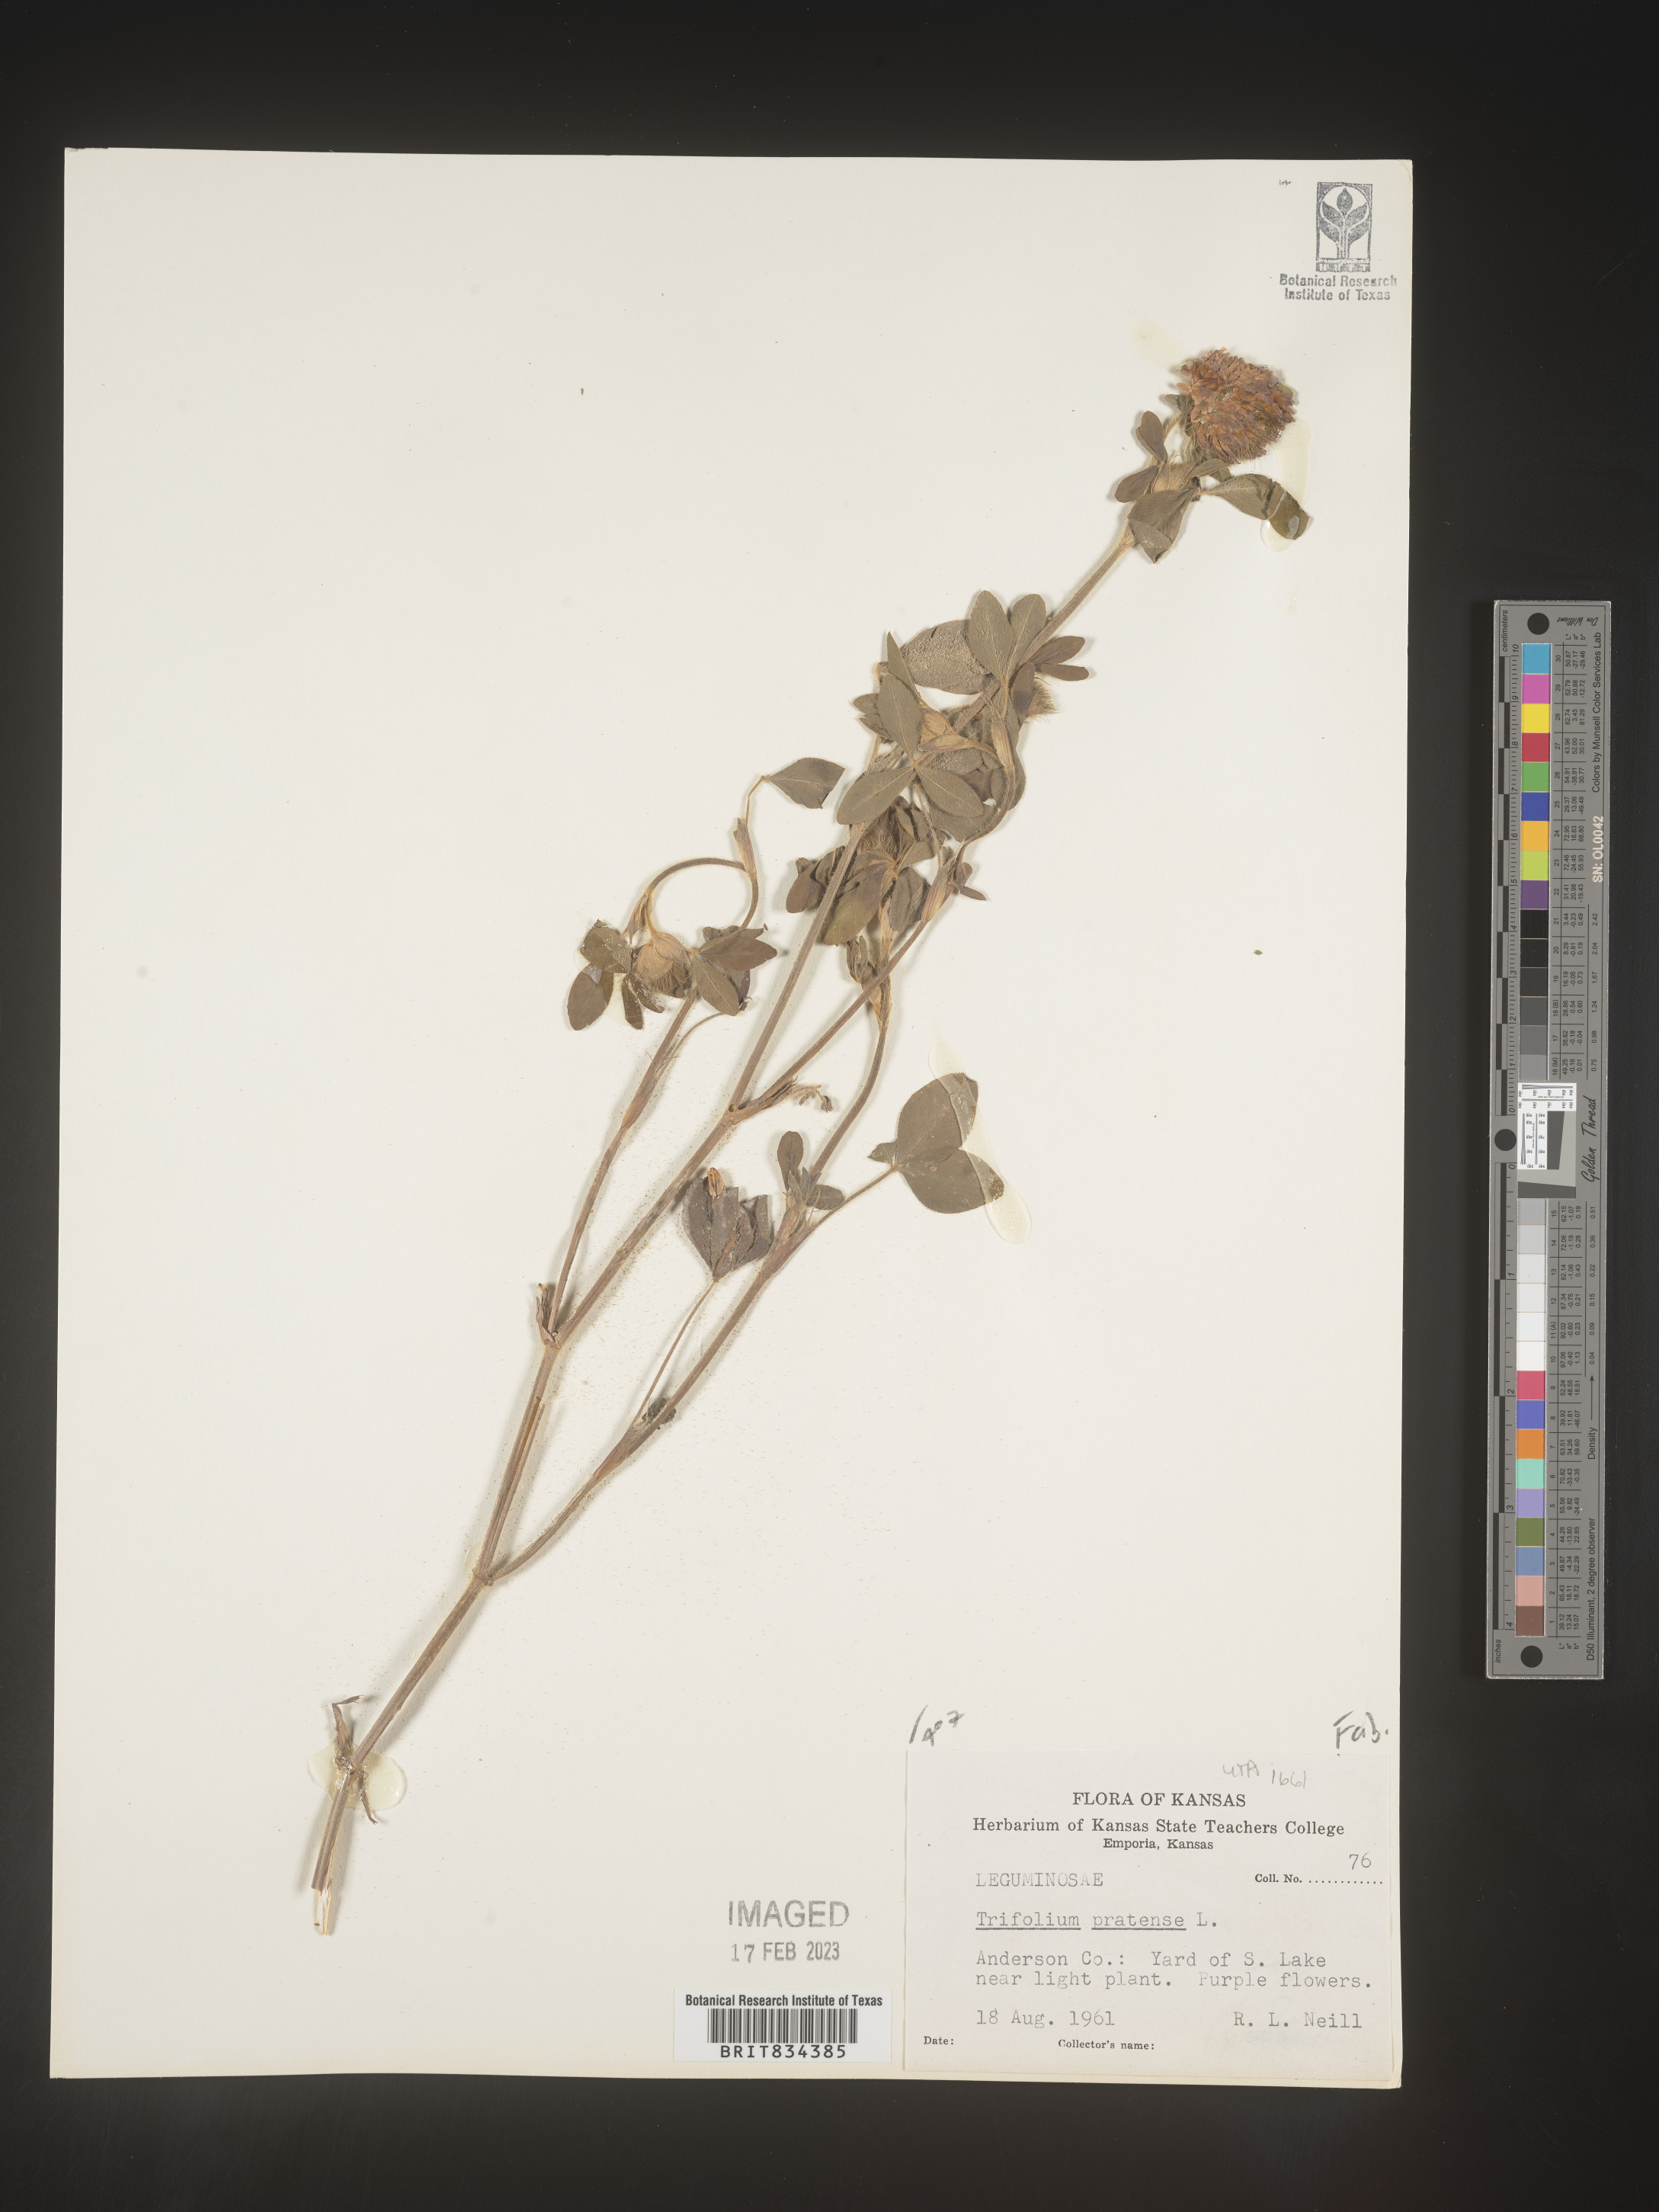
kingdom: Plantae
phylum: Tracheophyta
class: Magnoliopsida
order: Fabales
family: Fabaceae
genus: Trifolium
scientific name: Trifolium pratense
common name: Red clover
